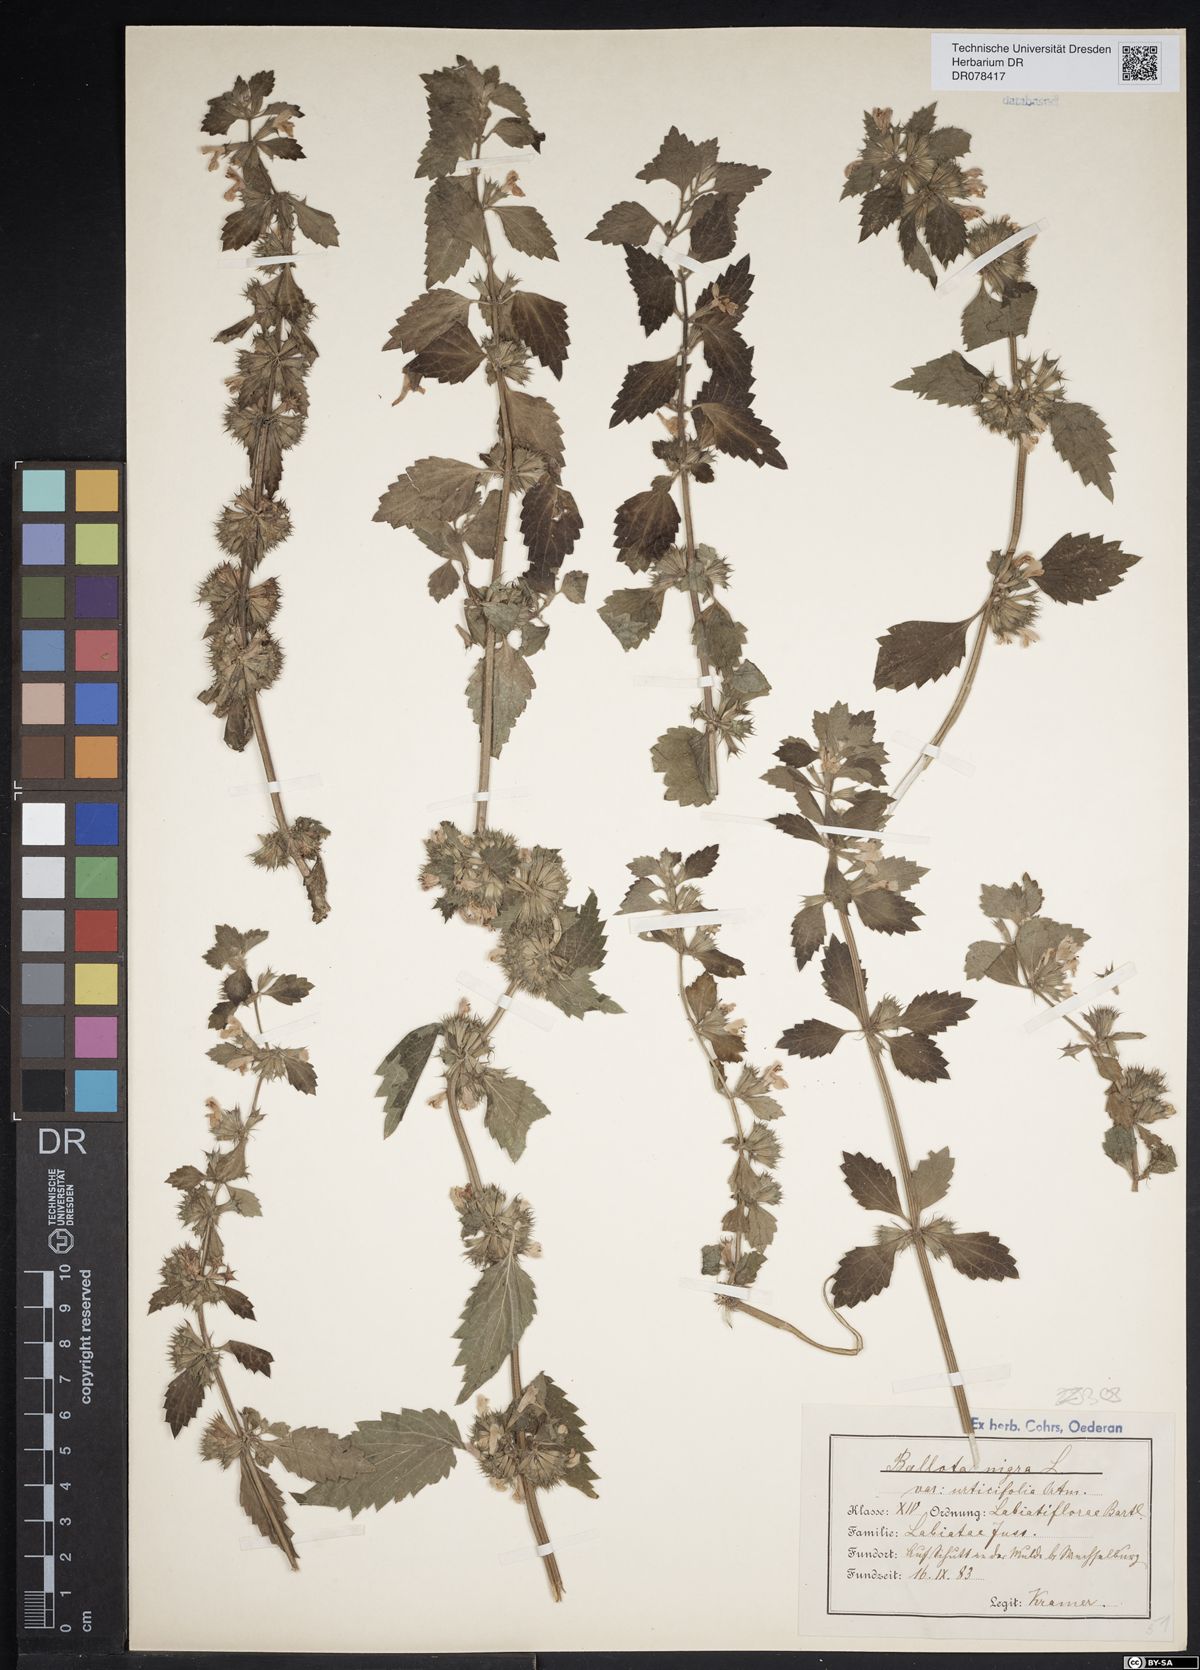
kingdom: Plantae
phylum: Tracheophyta
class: Magnoliopsida
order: Lamiales
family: Lamiaceae
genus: Ballota
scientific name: Ballota nigra
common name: Black horehound
